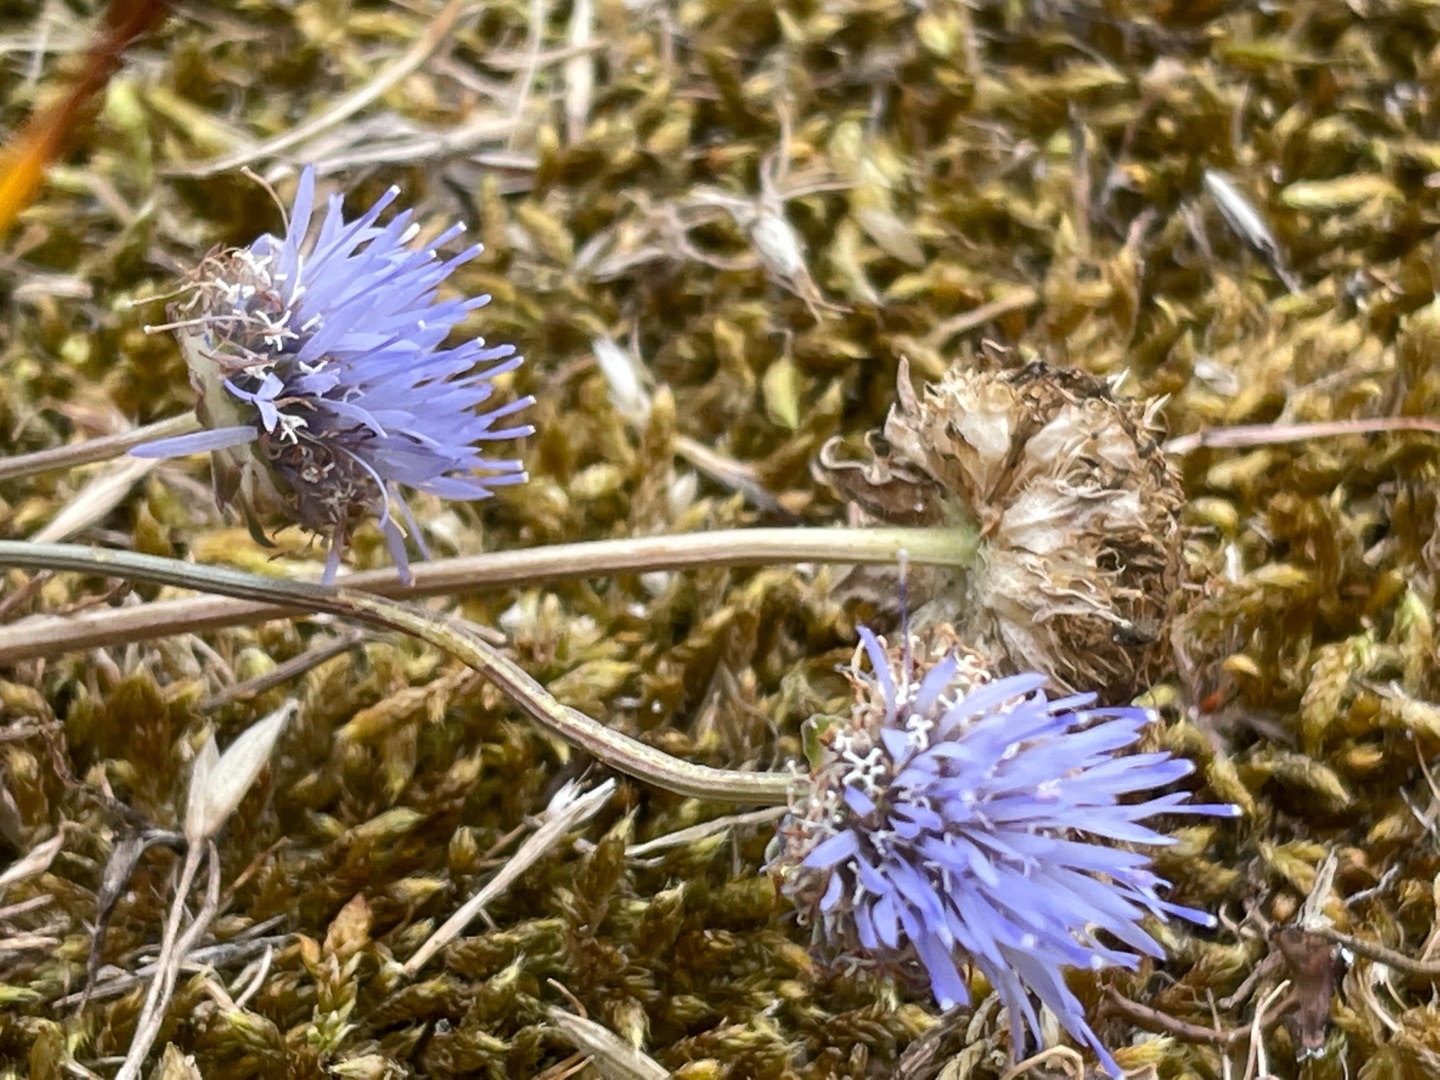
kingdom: Plantae
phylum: Tracheophyta
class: Magnoliopsida
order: Asterales
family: Campanulaceae
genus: Jasione
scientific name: Jasione montana
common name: Blåmunke
